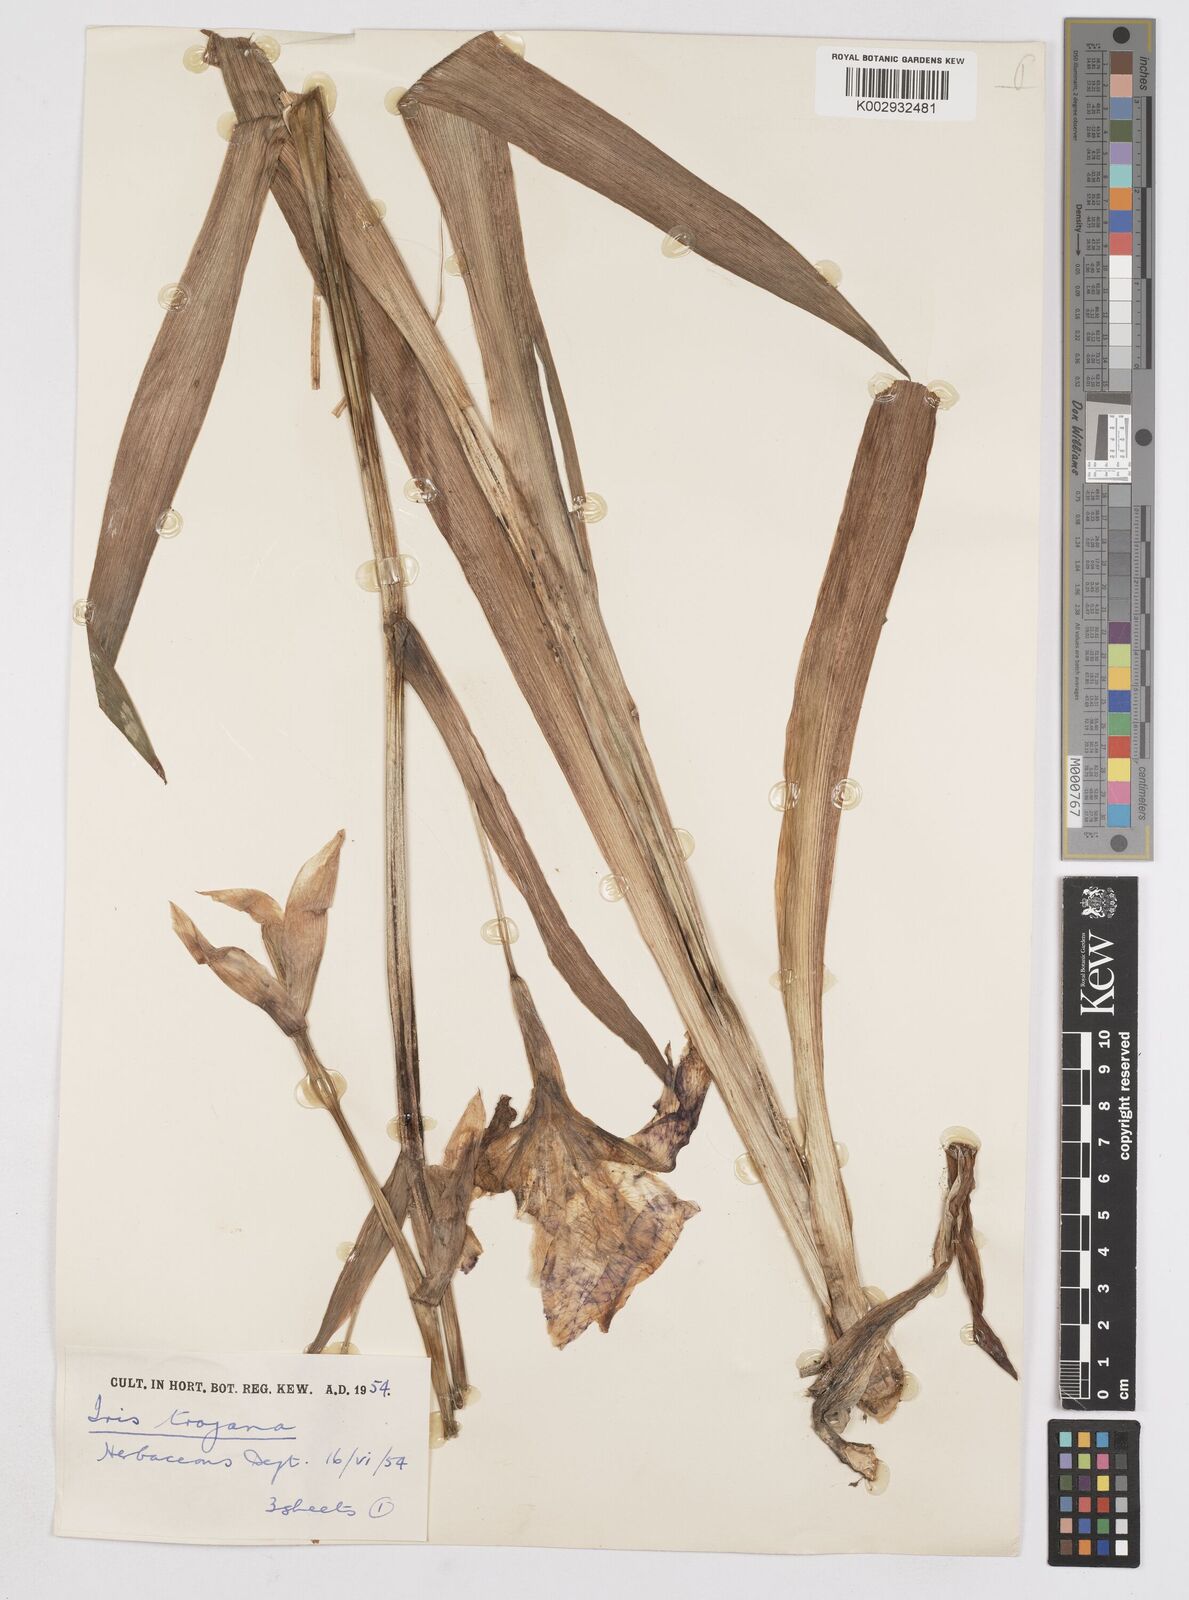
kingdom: Plantae
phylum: Tracheophyta
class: Liliopsida
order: Asparagales
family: Iridaceae
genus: Iris
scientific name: Iris
